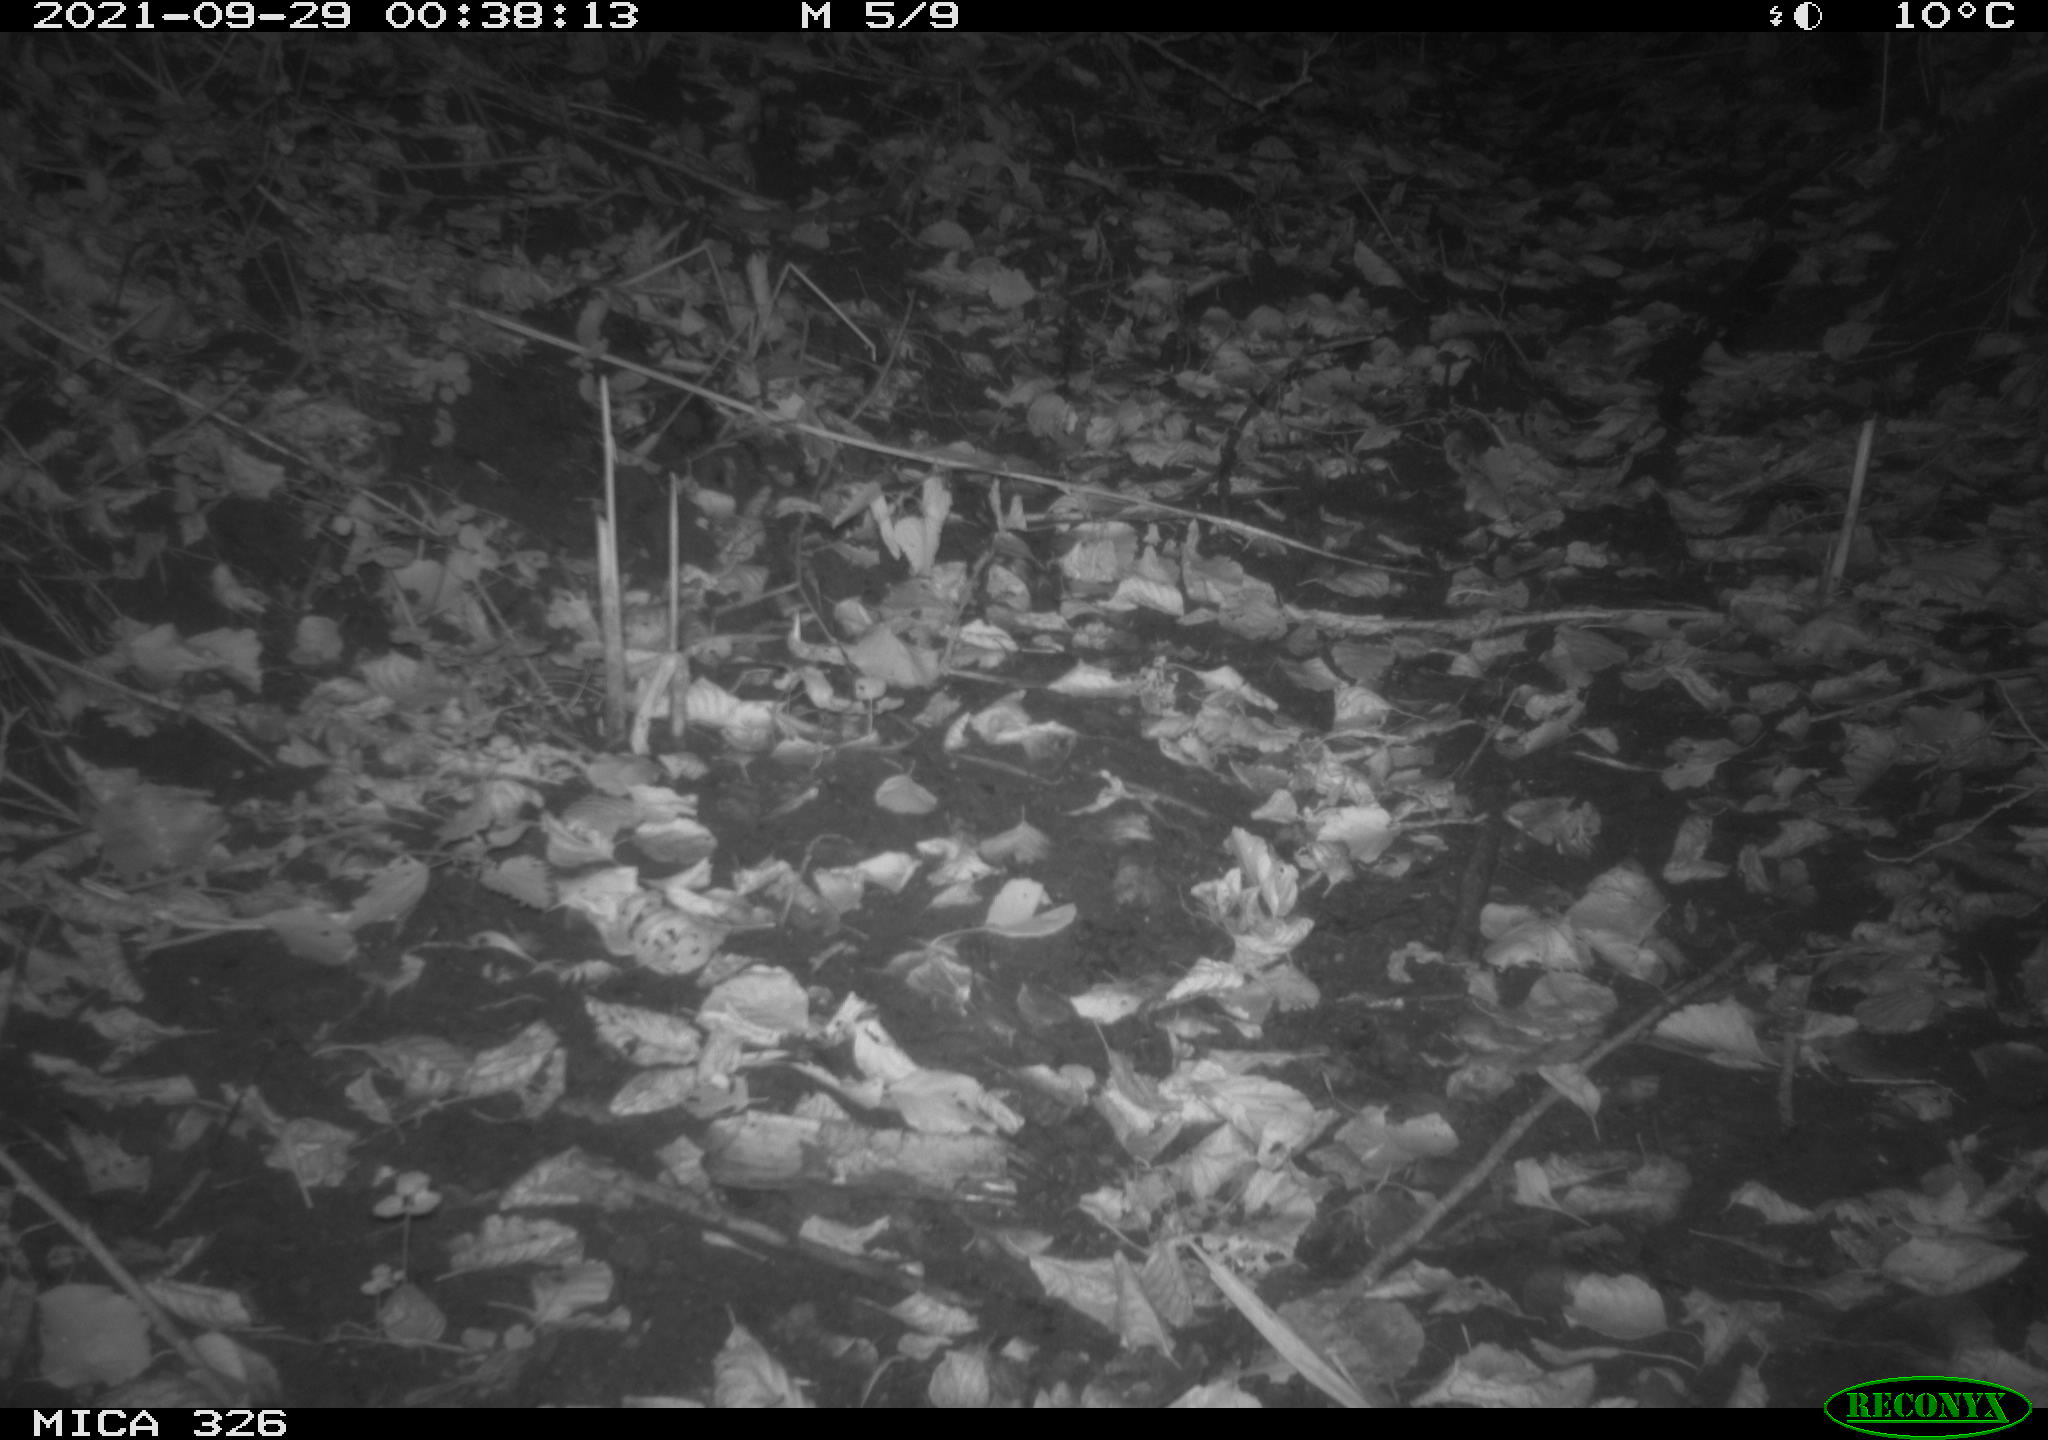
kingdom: Animalia
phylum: Chordata
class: Mammalia
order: Rodentia
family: Myocastoridae
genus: Myocastor
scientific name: Myocastor coypus
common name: Coypu
